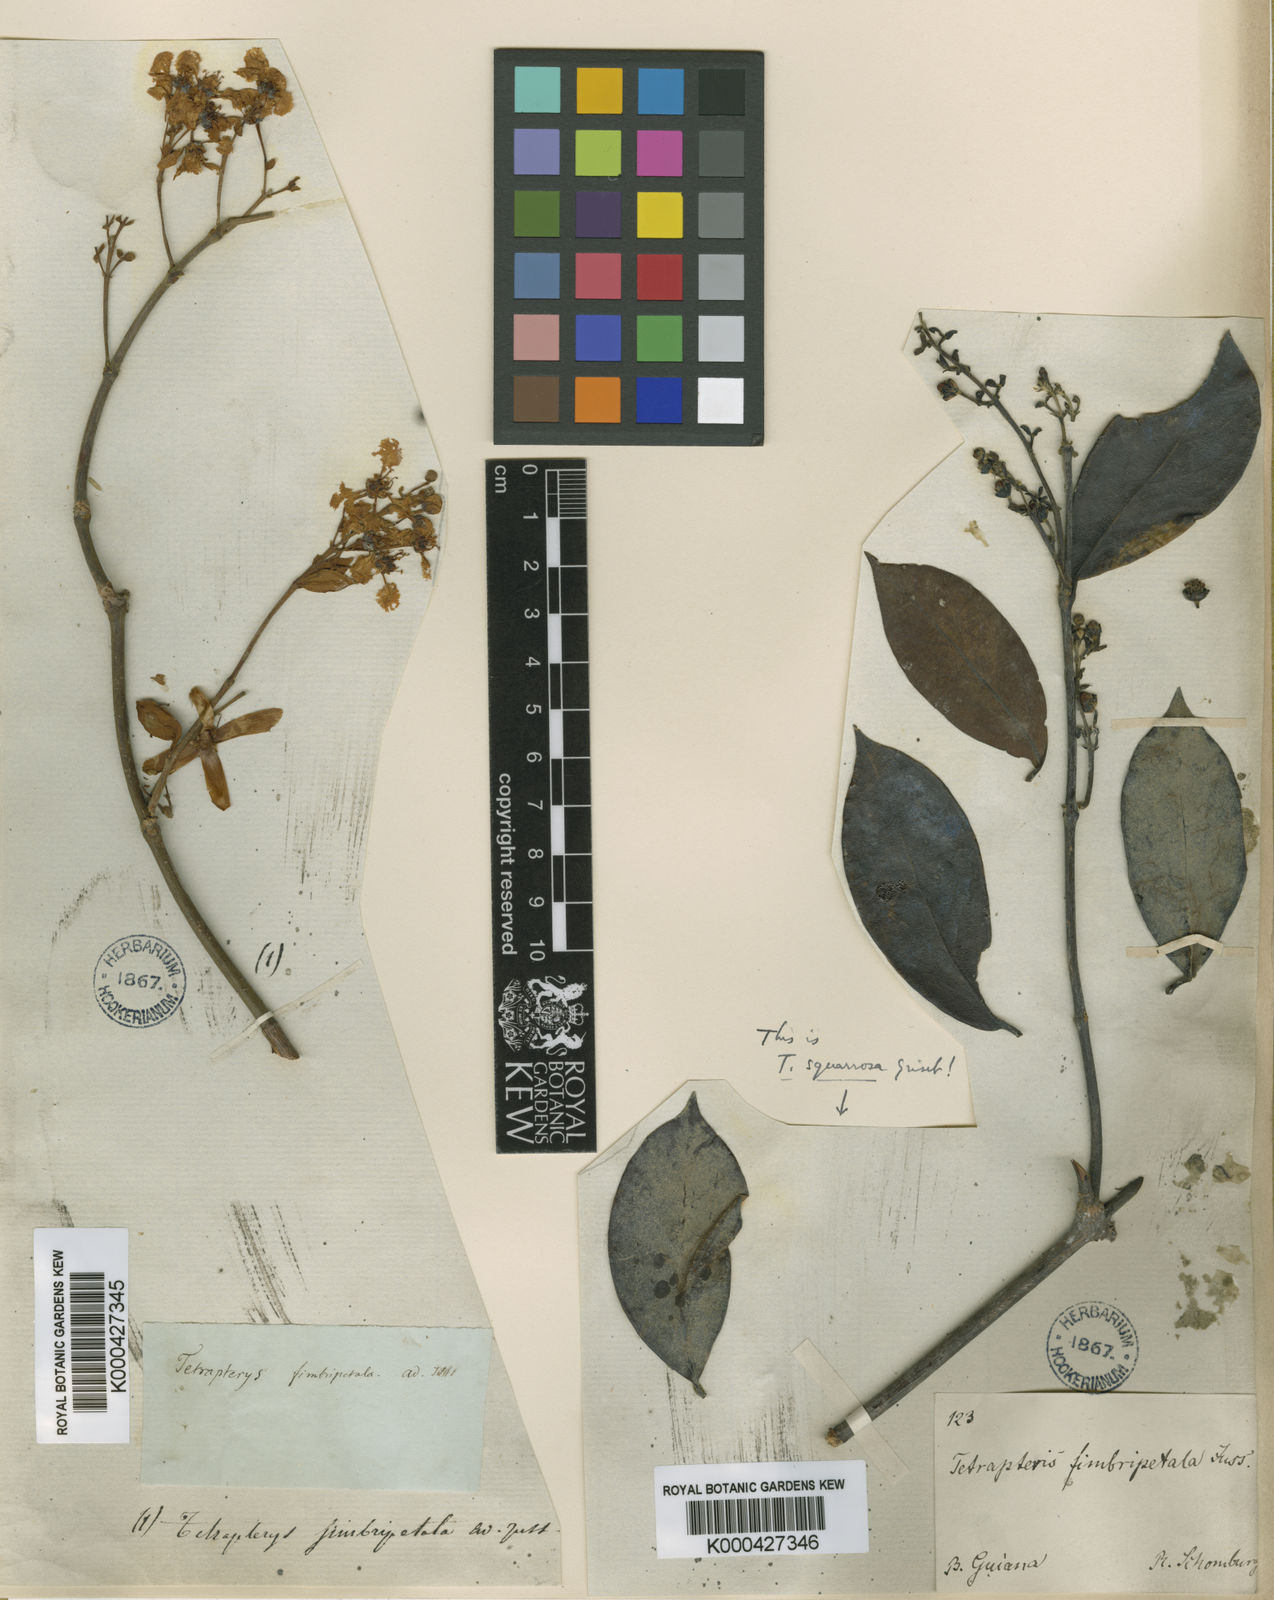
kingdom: Plantae
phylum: Tracheophyta
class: Magnoliopsida
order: Malpighiales
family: Malpighiaceae
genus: Glicophyllum
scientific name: Glicophyllum fimbripetalum
